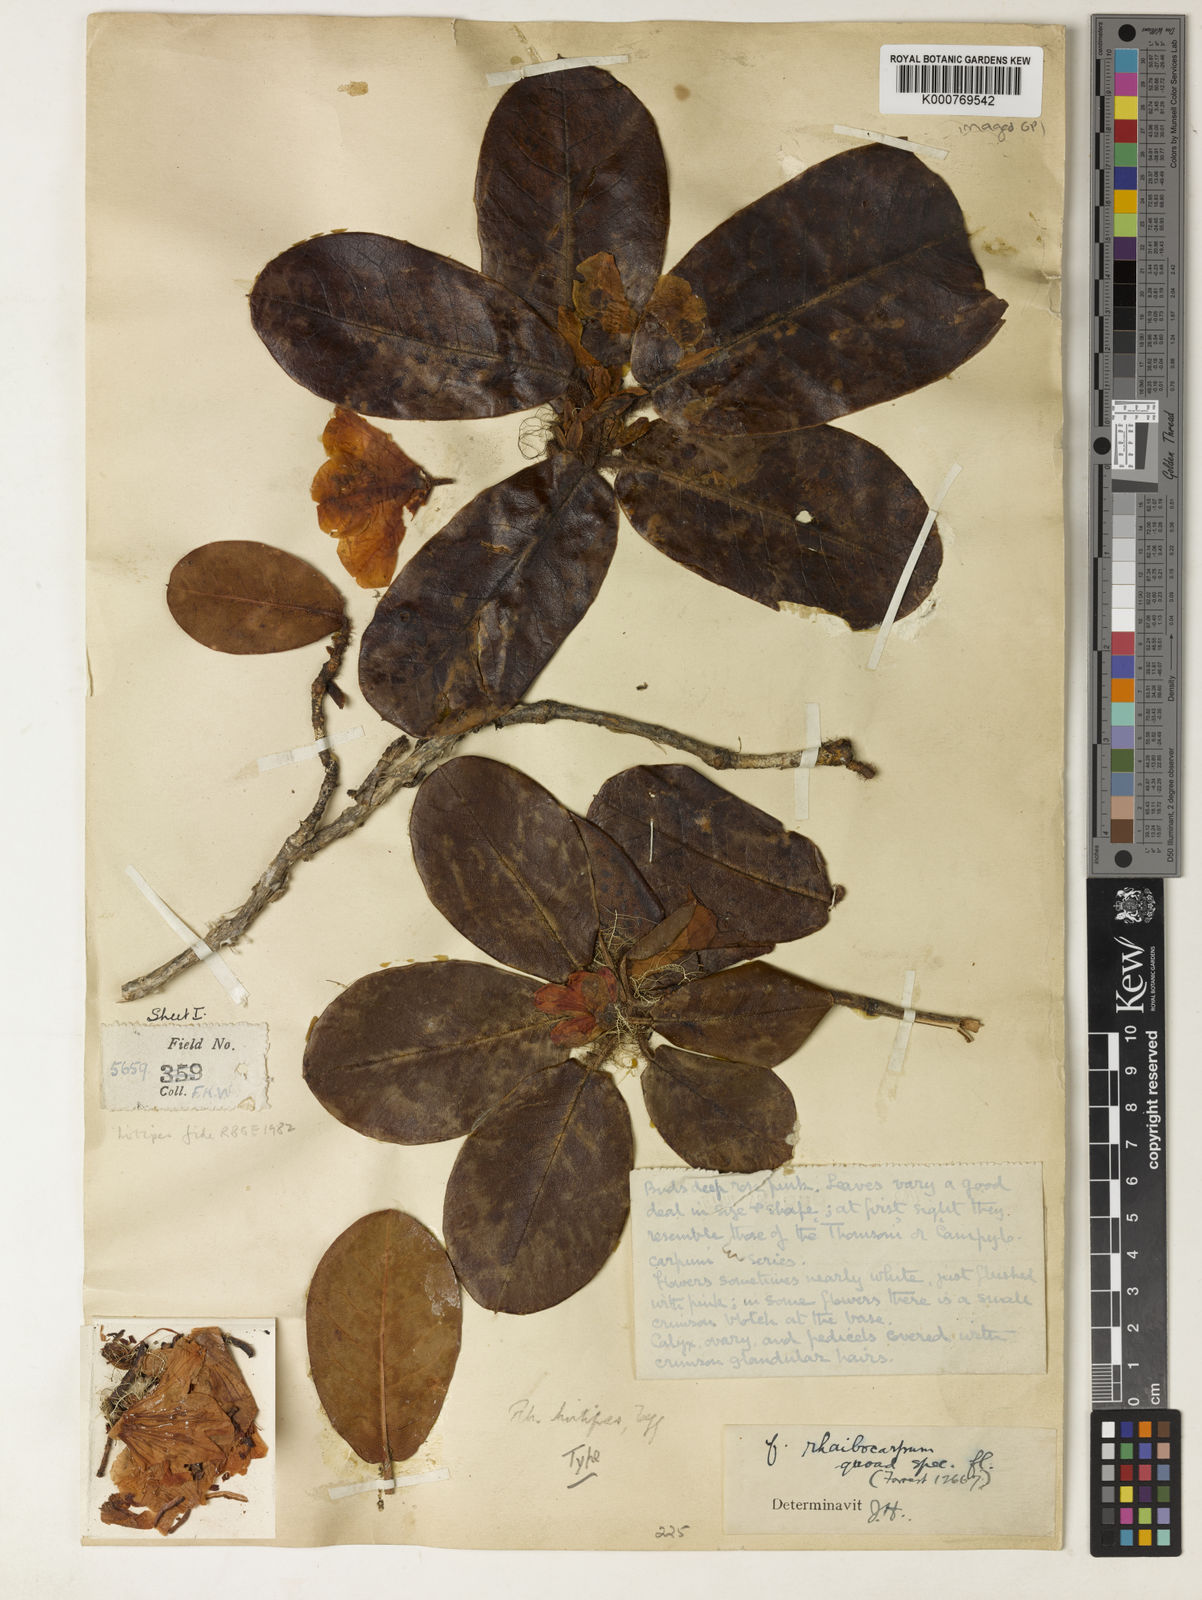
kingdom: Plantae
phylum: Tracheophyta
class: Magnoliopsida
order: Ericales
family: Ericaceae
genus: Rhododendron
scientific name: Rhododendron hirtipes
